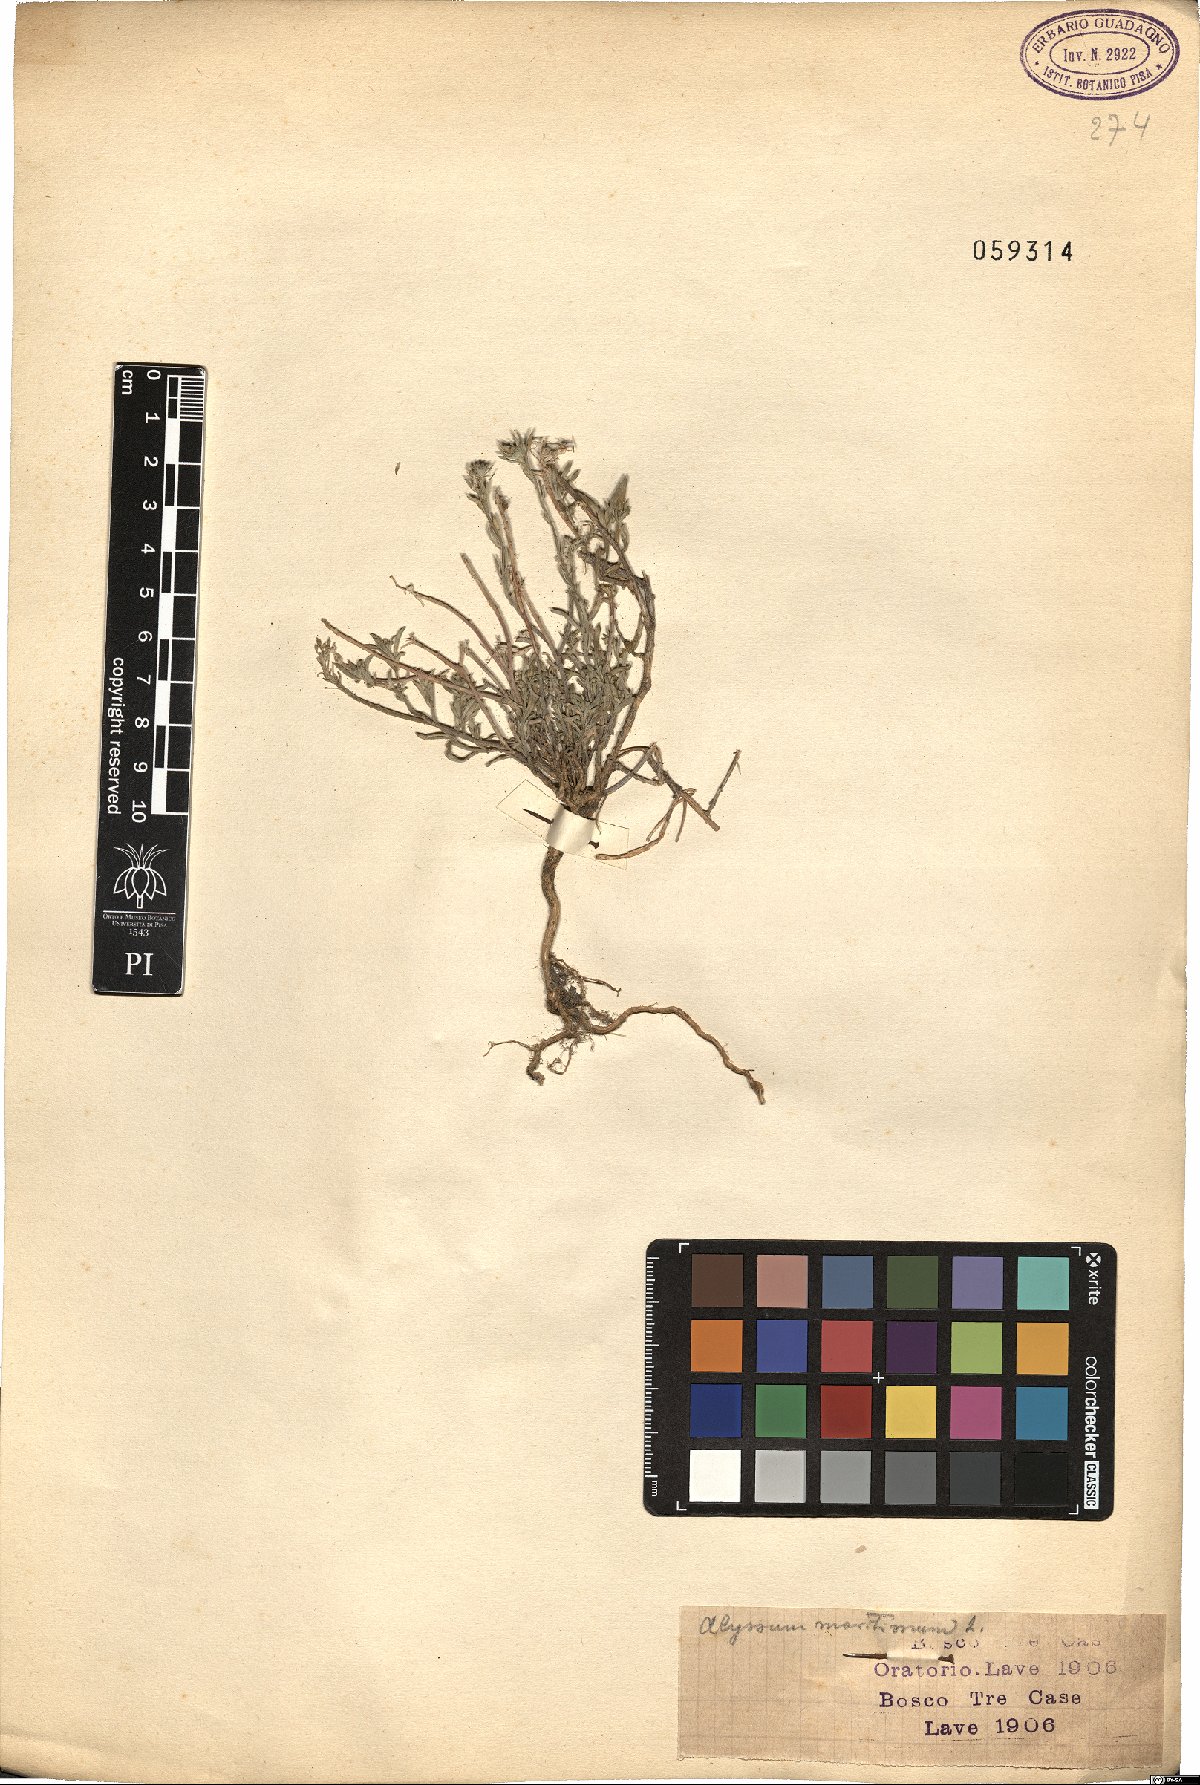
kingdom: Plantae
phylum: Tracheophyta
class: Magnoliopsida
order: Brassicales
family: Brassicaceae
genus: Lobularia
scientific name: Lobularia maritima
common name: Sweet alison
